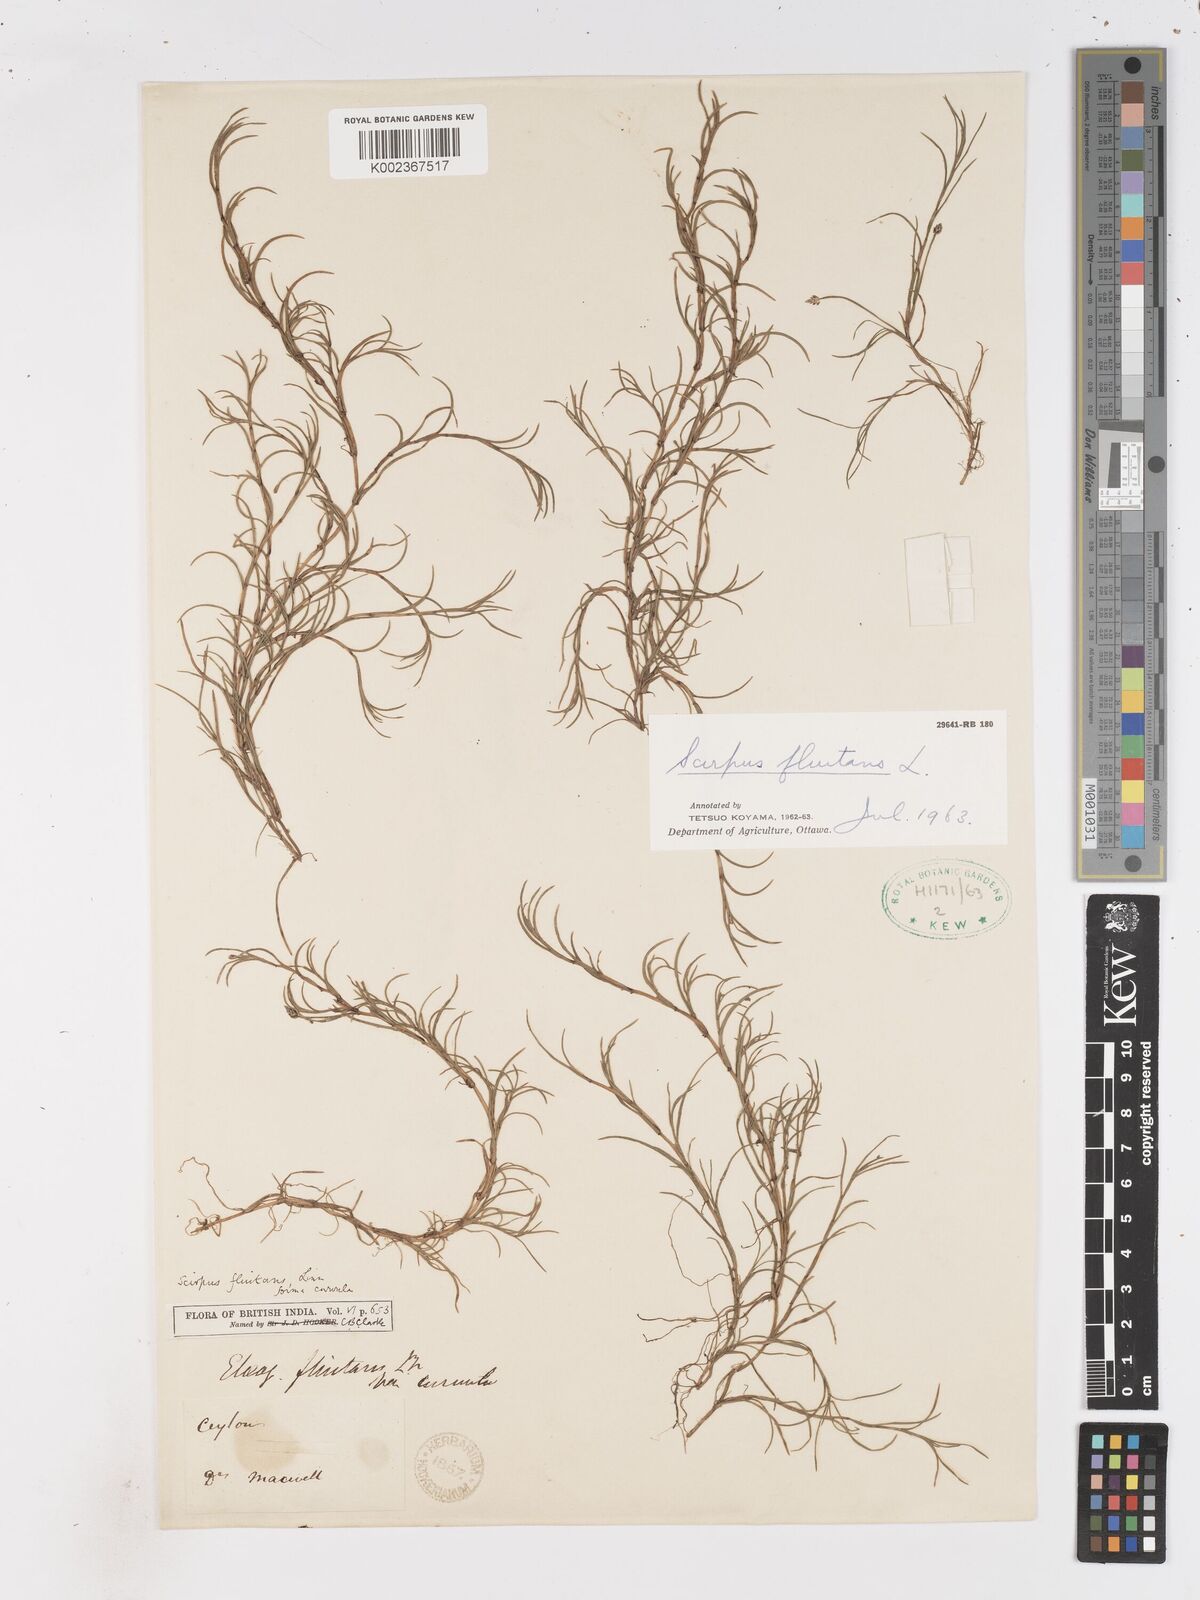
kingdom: Plantae
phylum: Tracheophyta
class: Liliopsida
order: Poales
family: Cyperaceae
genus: Isolepis
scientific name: Isolepis fluitans
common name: Floating club-rush
